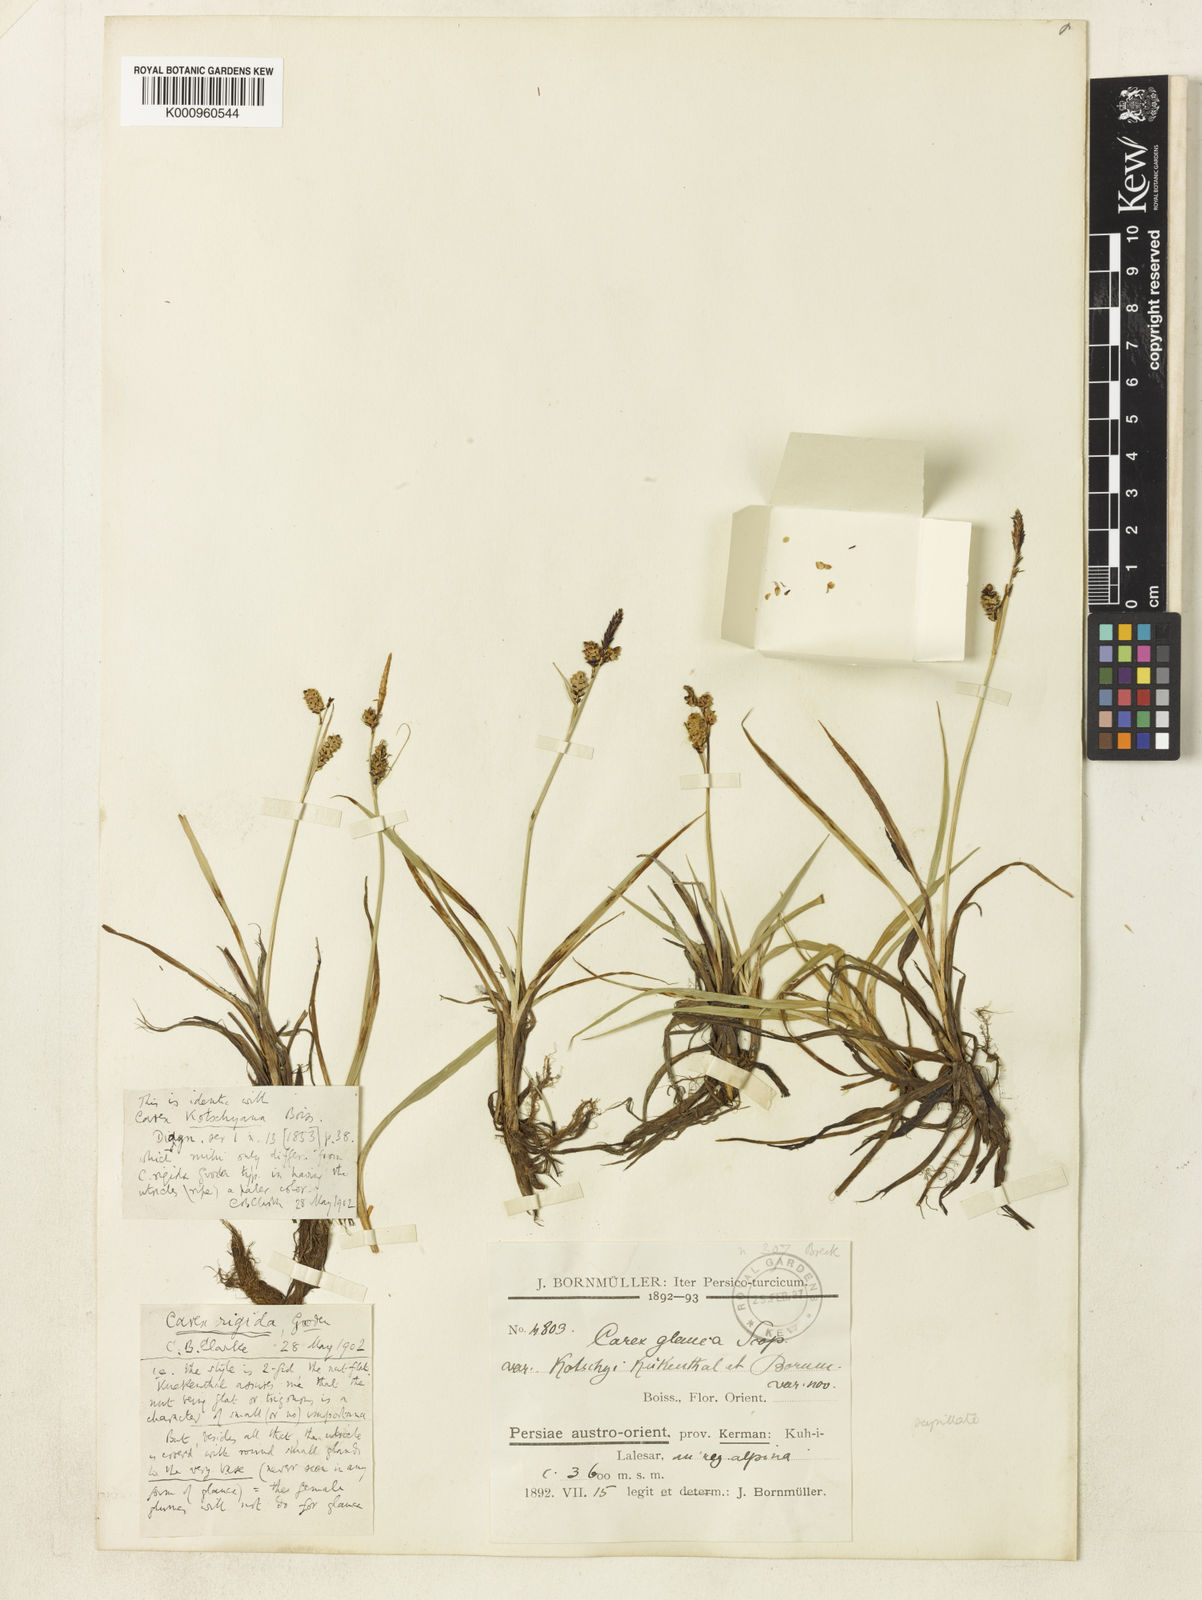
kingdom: Plantae
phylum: Tracheophyta
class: Liliopsida
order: Poales
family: Cyperaceae
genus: Carex
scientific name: Carex orbicularis
